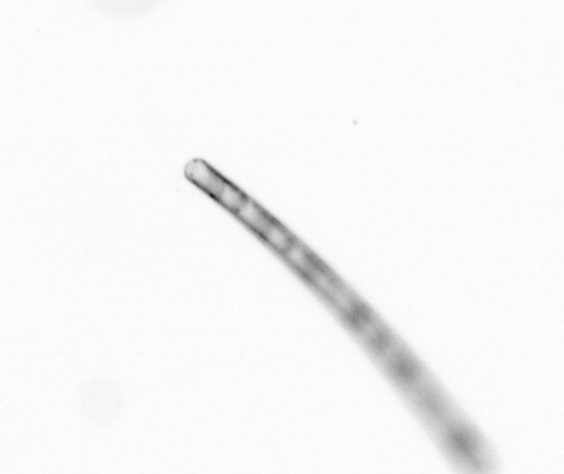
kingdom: Chromista
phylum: Ochrophyta
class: Bacillariophyceae
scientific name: Bacillariophyceae
